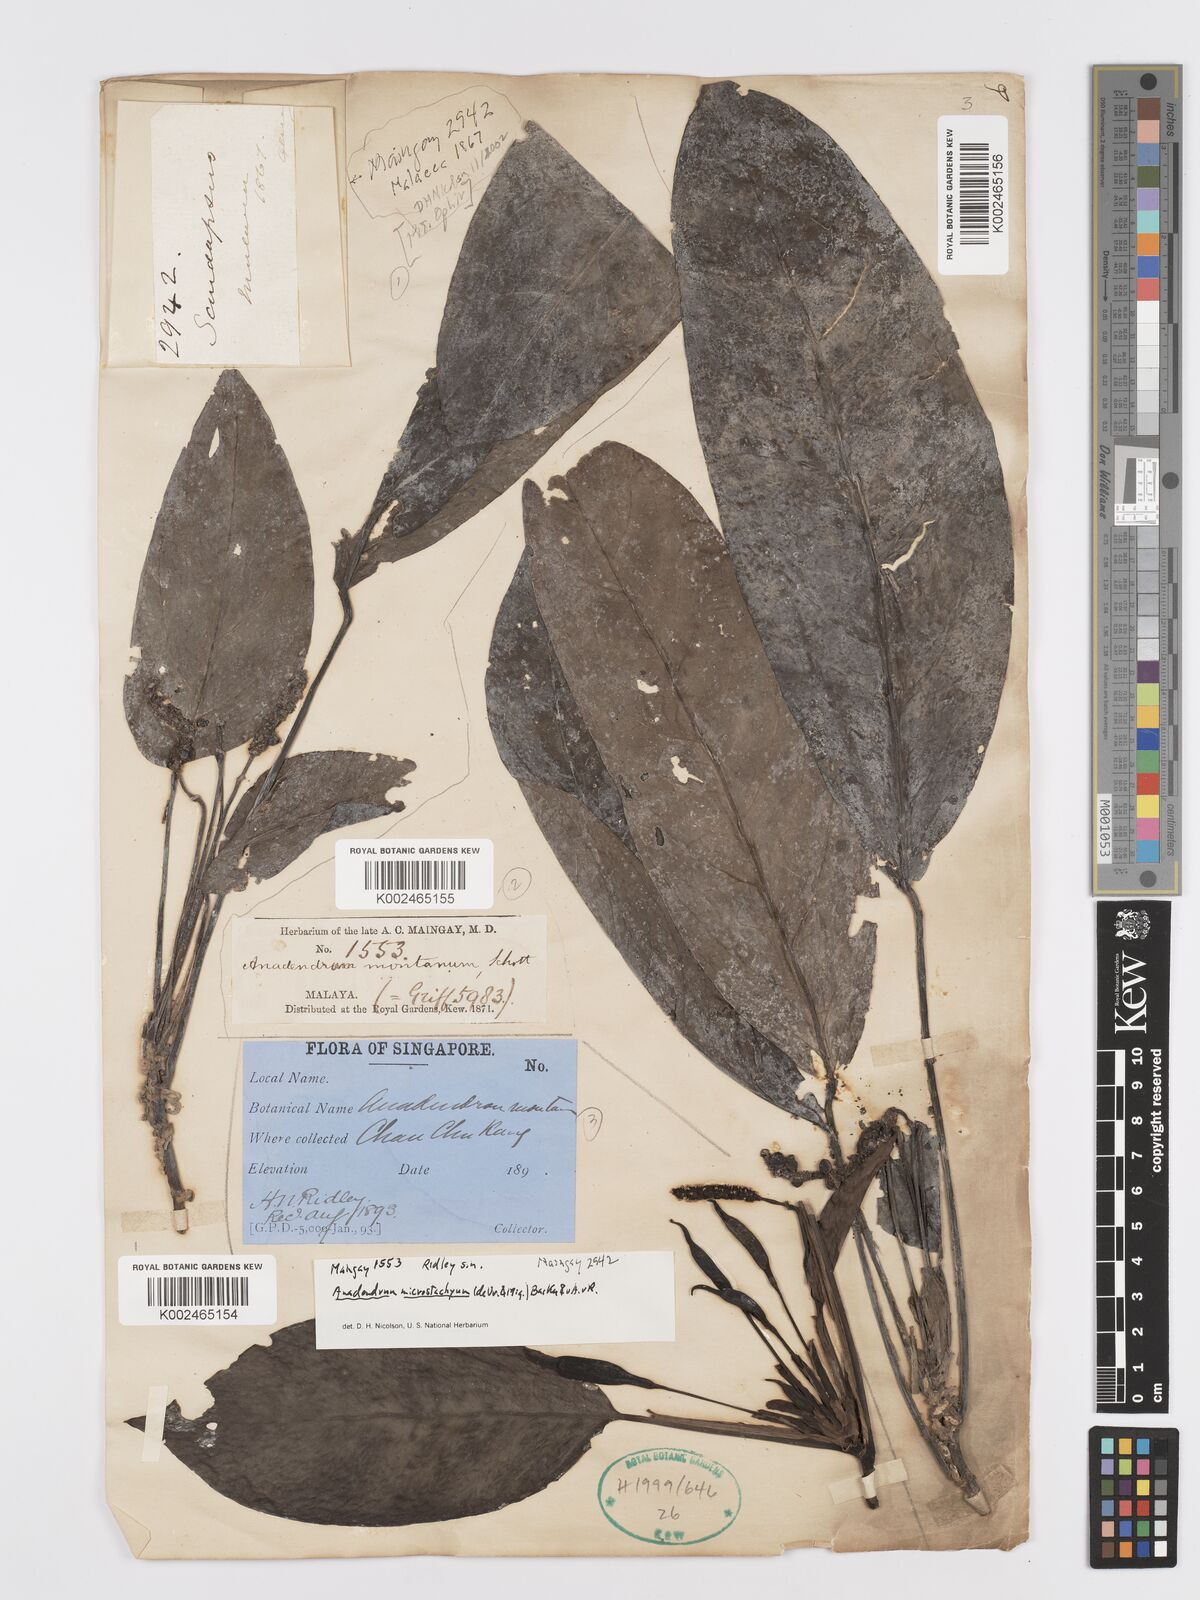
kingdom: Plantae
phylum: Tracheophyta
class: Liliopsida
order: Alismatales
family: Araceae
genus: Anadendrum
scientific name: Anadendrum microstachyum
